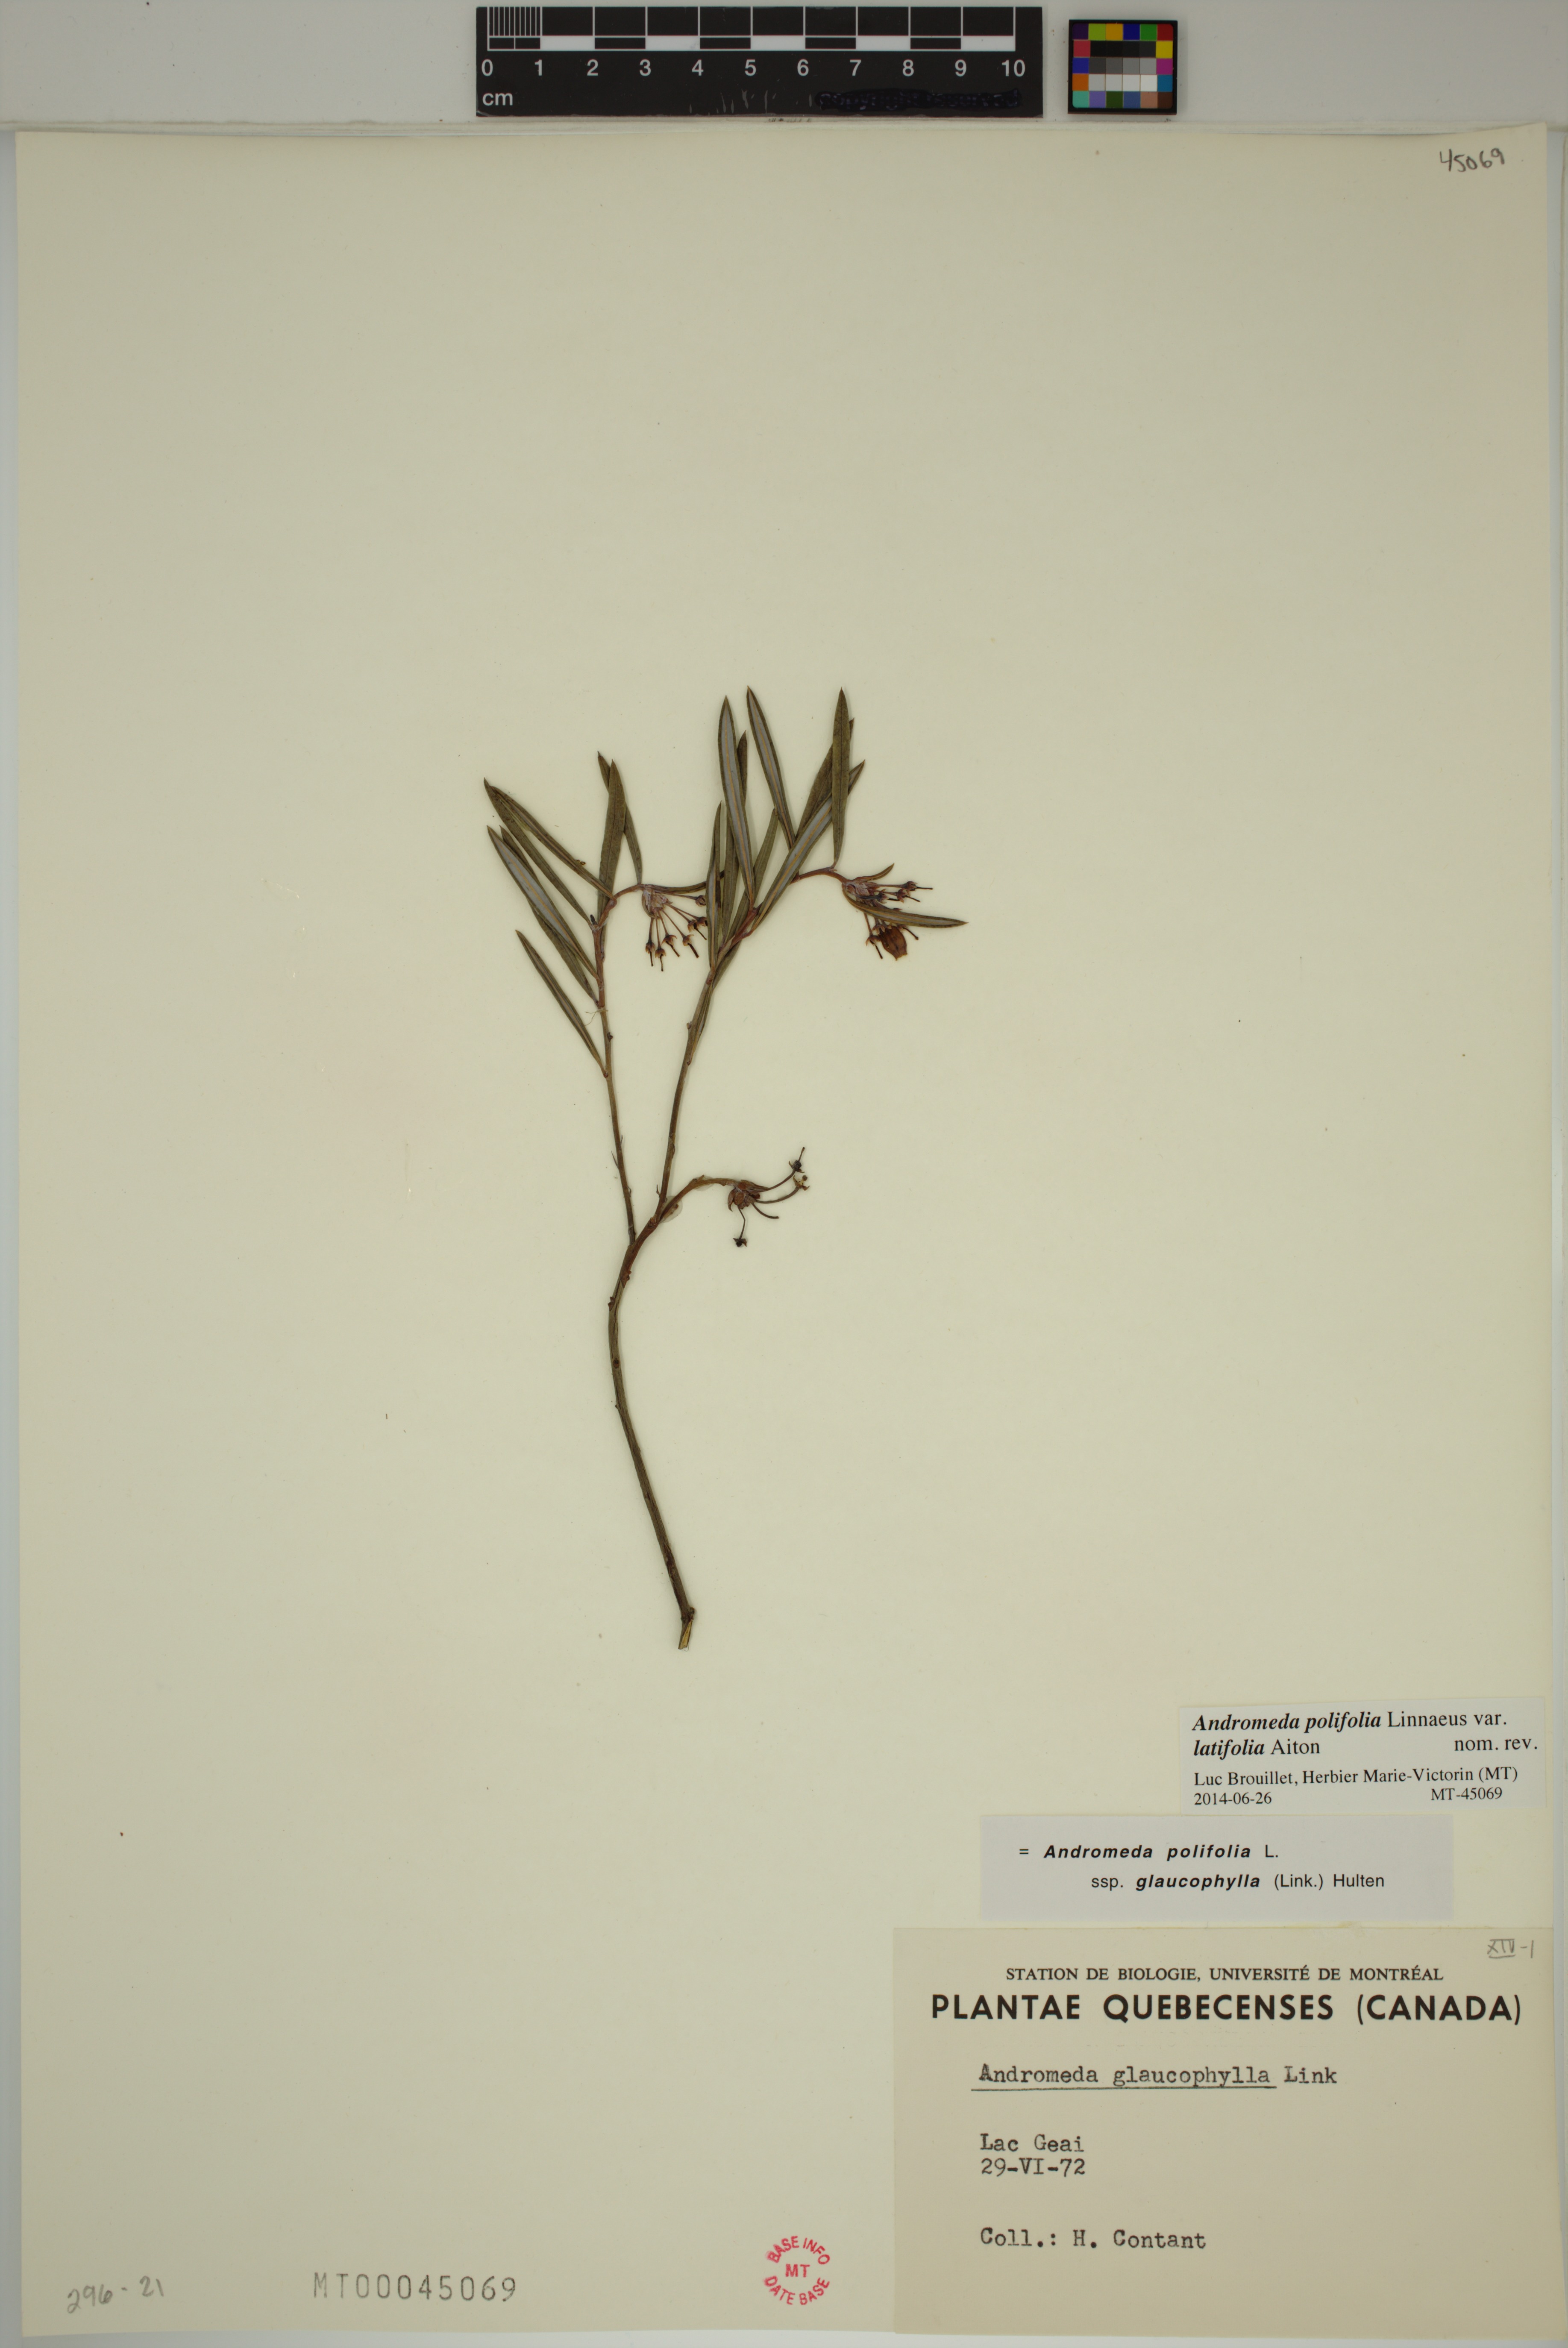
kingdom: Plantae
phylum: Tracheophyta
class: Magnoliopsida
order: Ericales
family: Ericaceae
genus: Andromeda
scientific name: Andromeda polifolia
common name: Bog-rosemary
